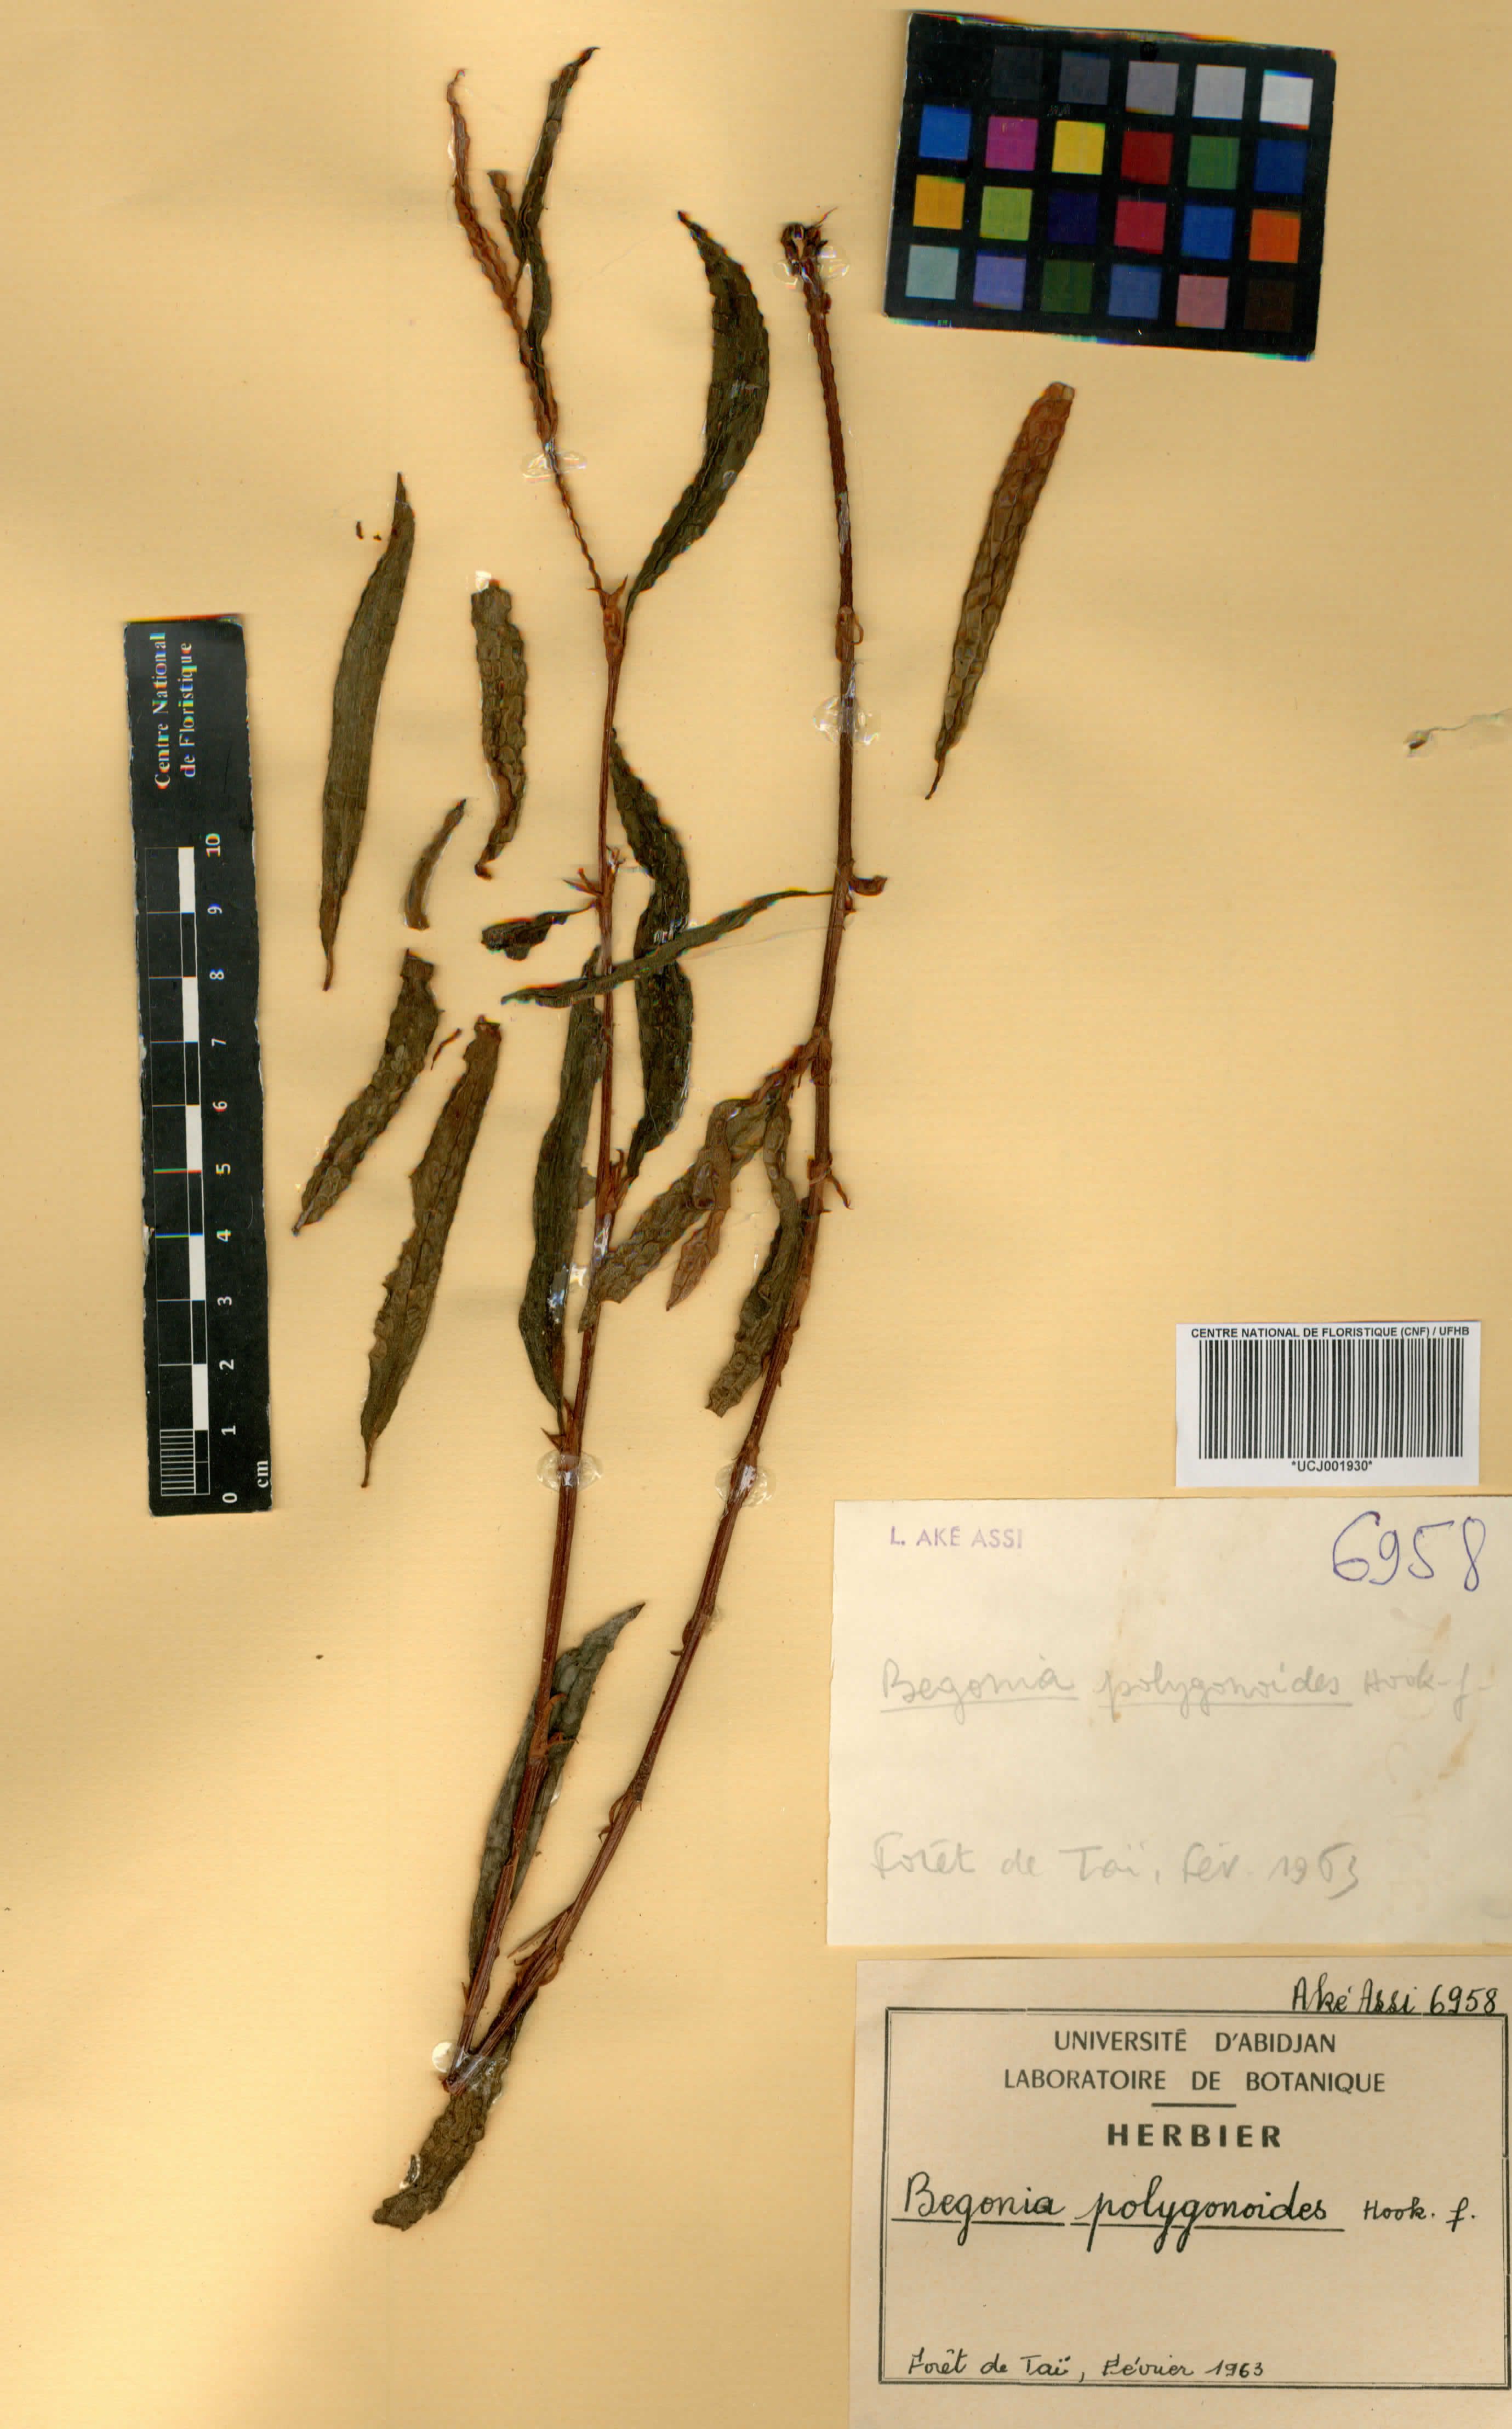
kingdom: Plantae
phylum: Tracheophyta
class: Magnoliopsida
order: Cucurbitales
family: Begoniaceae
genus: Begonia
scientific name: Begonia polygonoides
